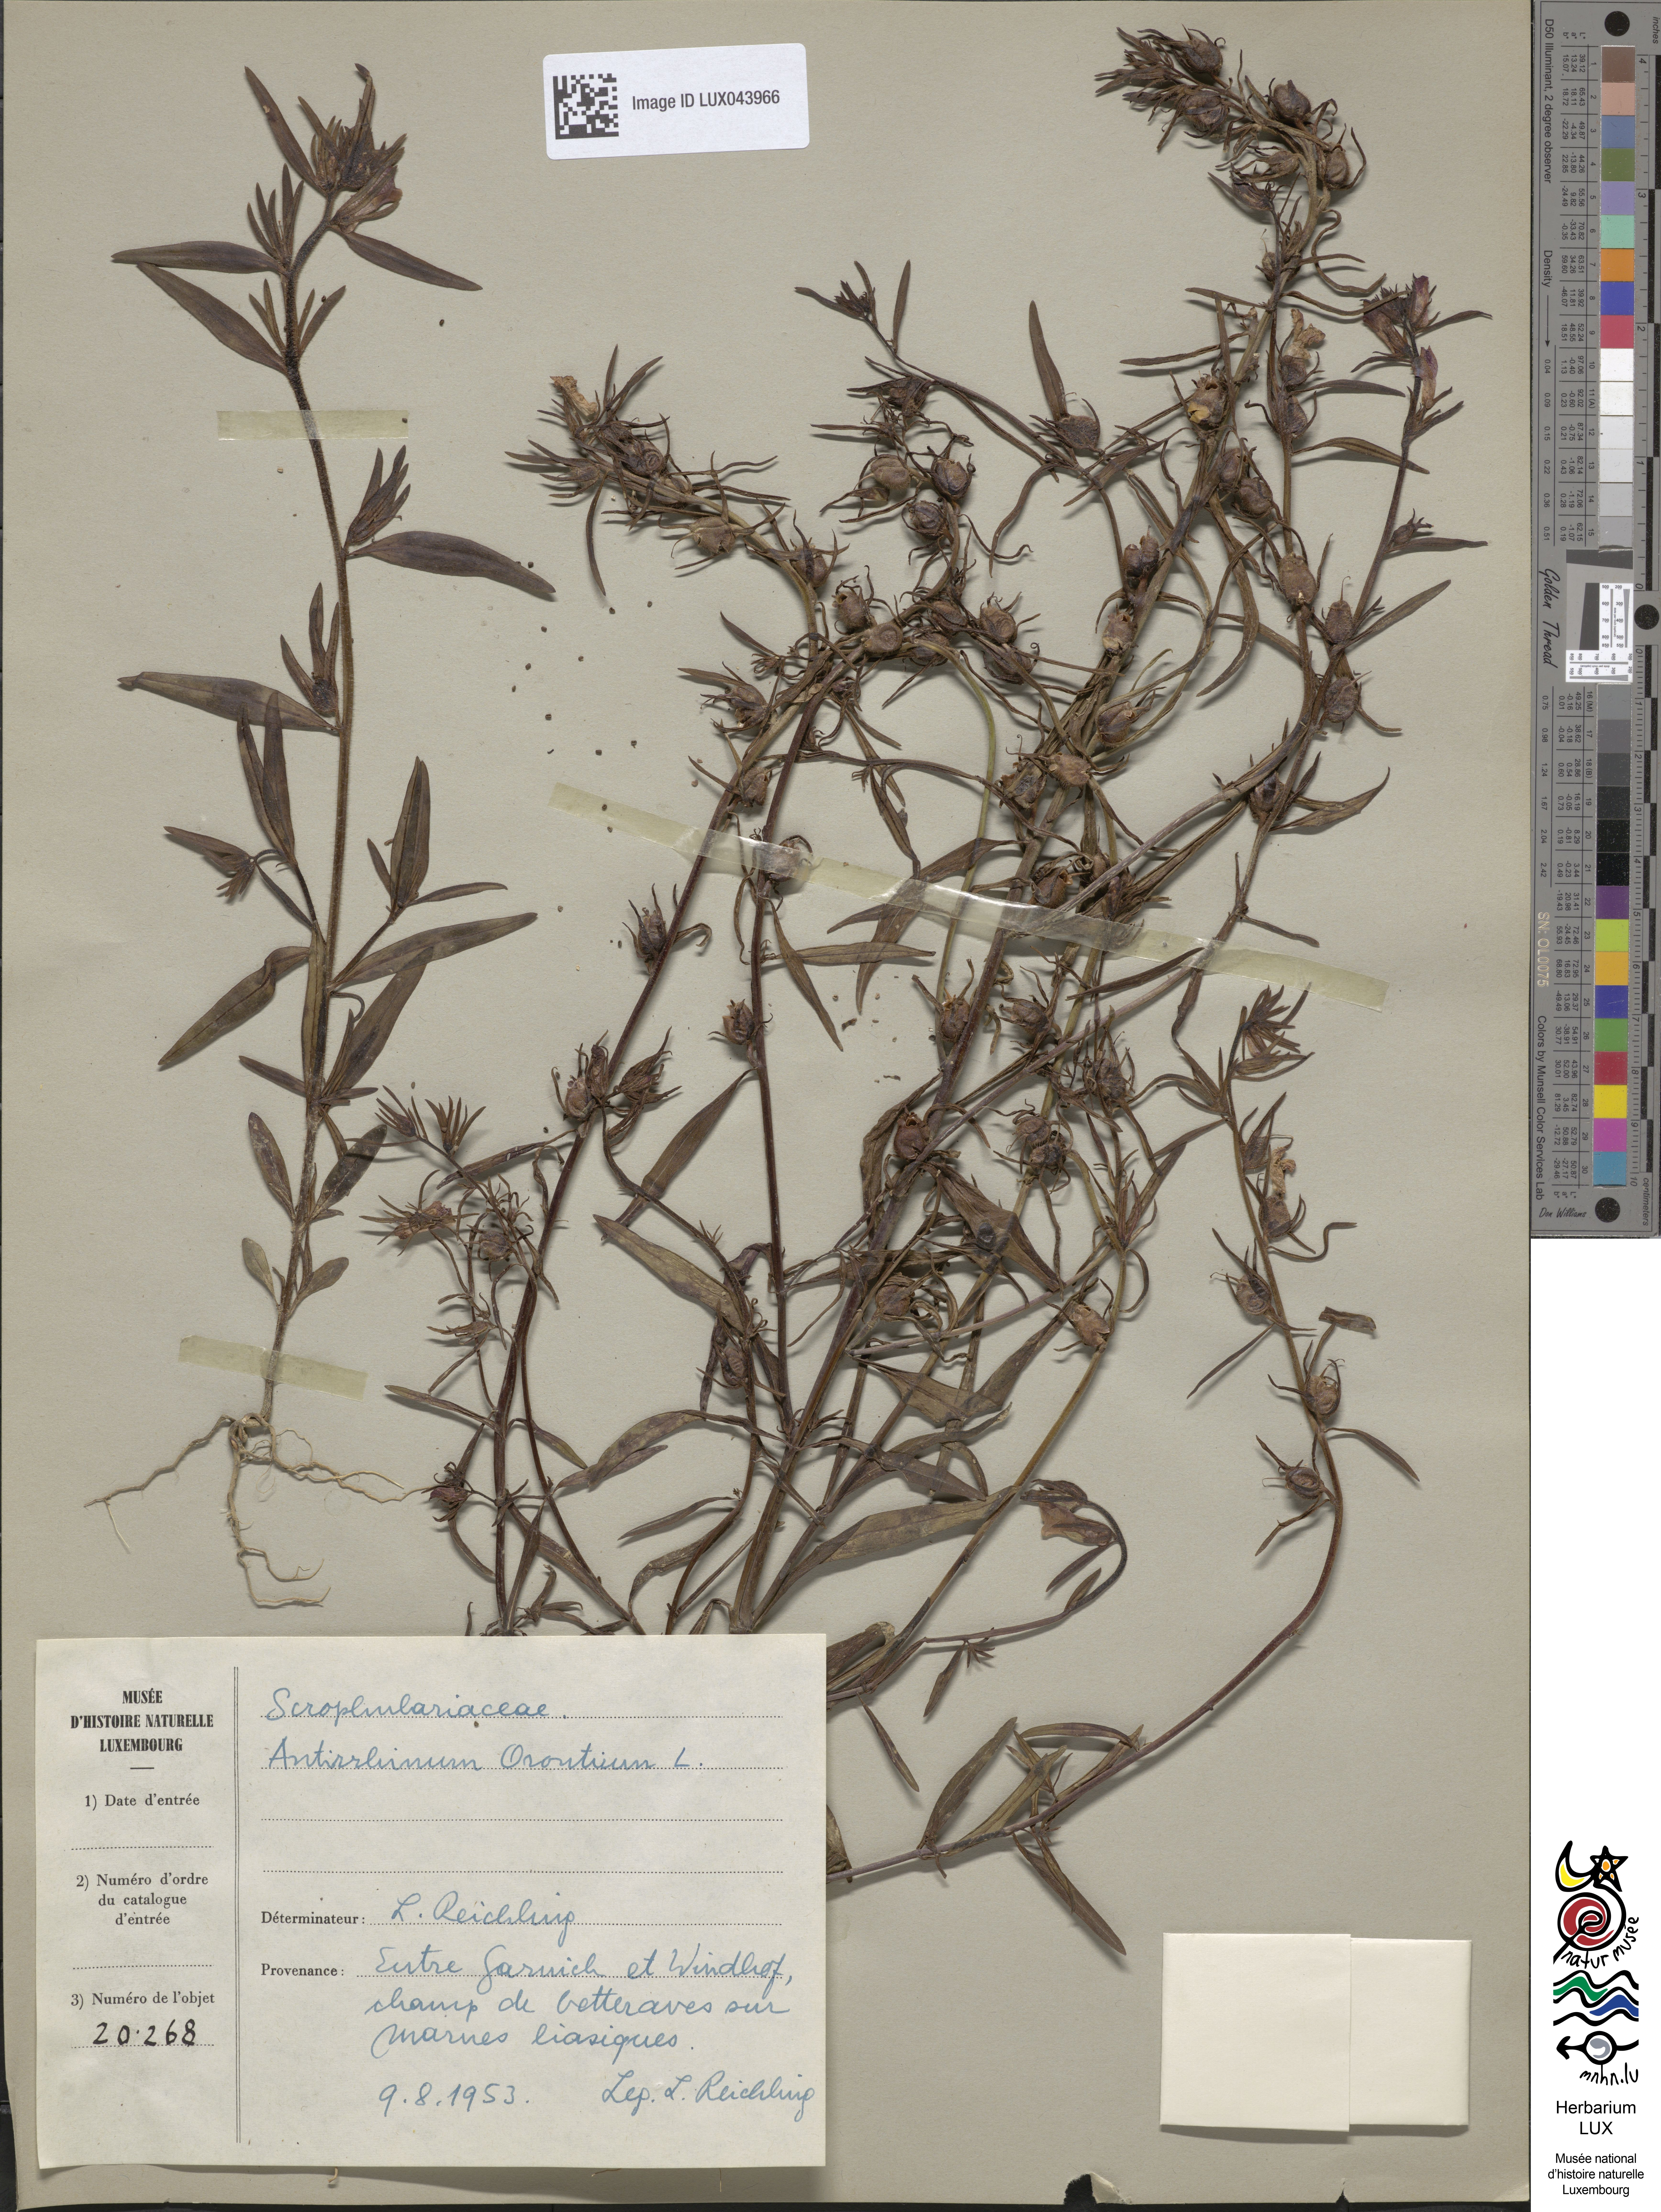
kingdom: Plantae
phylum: Tracheophyta
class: Magnoliopsida
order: Lamiales
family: Plantaginaceae
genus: Misopates
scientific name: Misopates orontium
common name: Weasel's-snout
